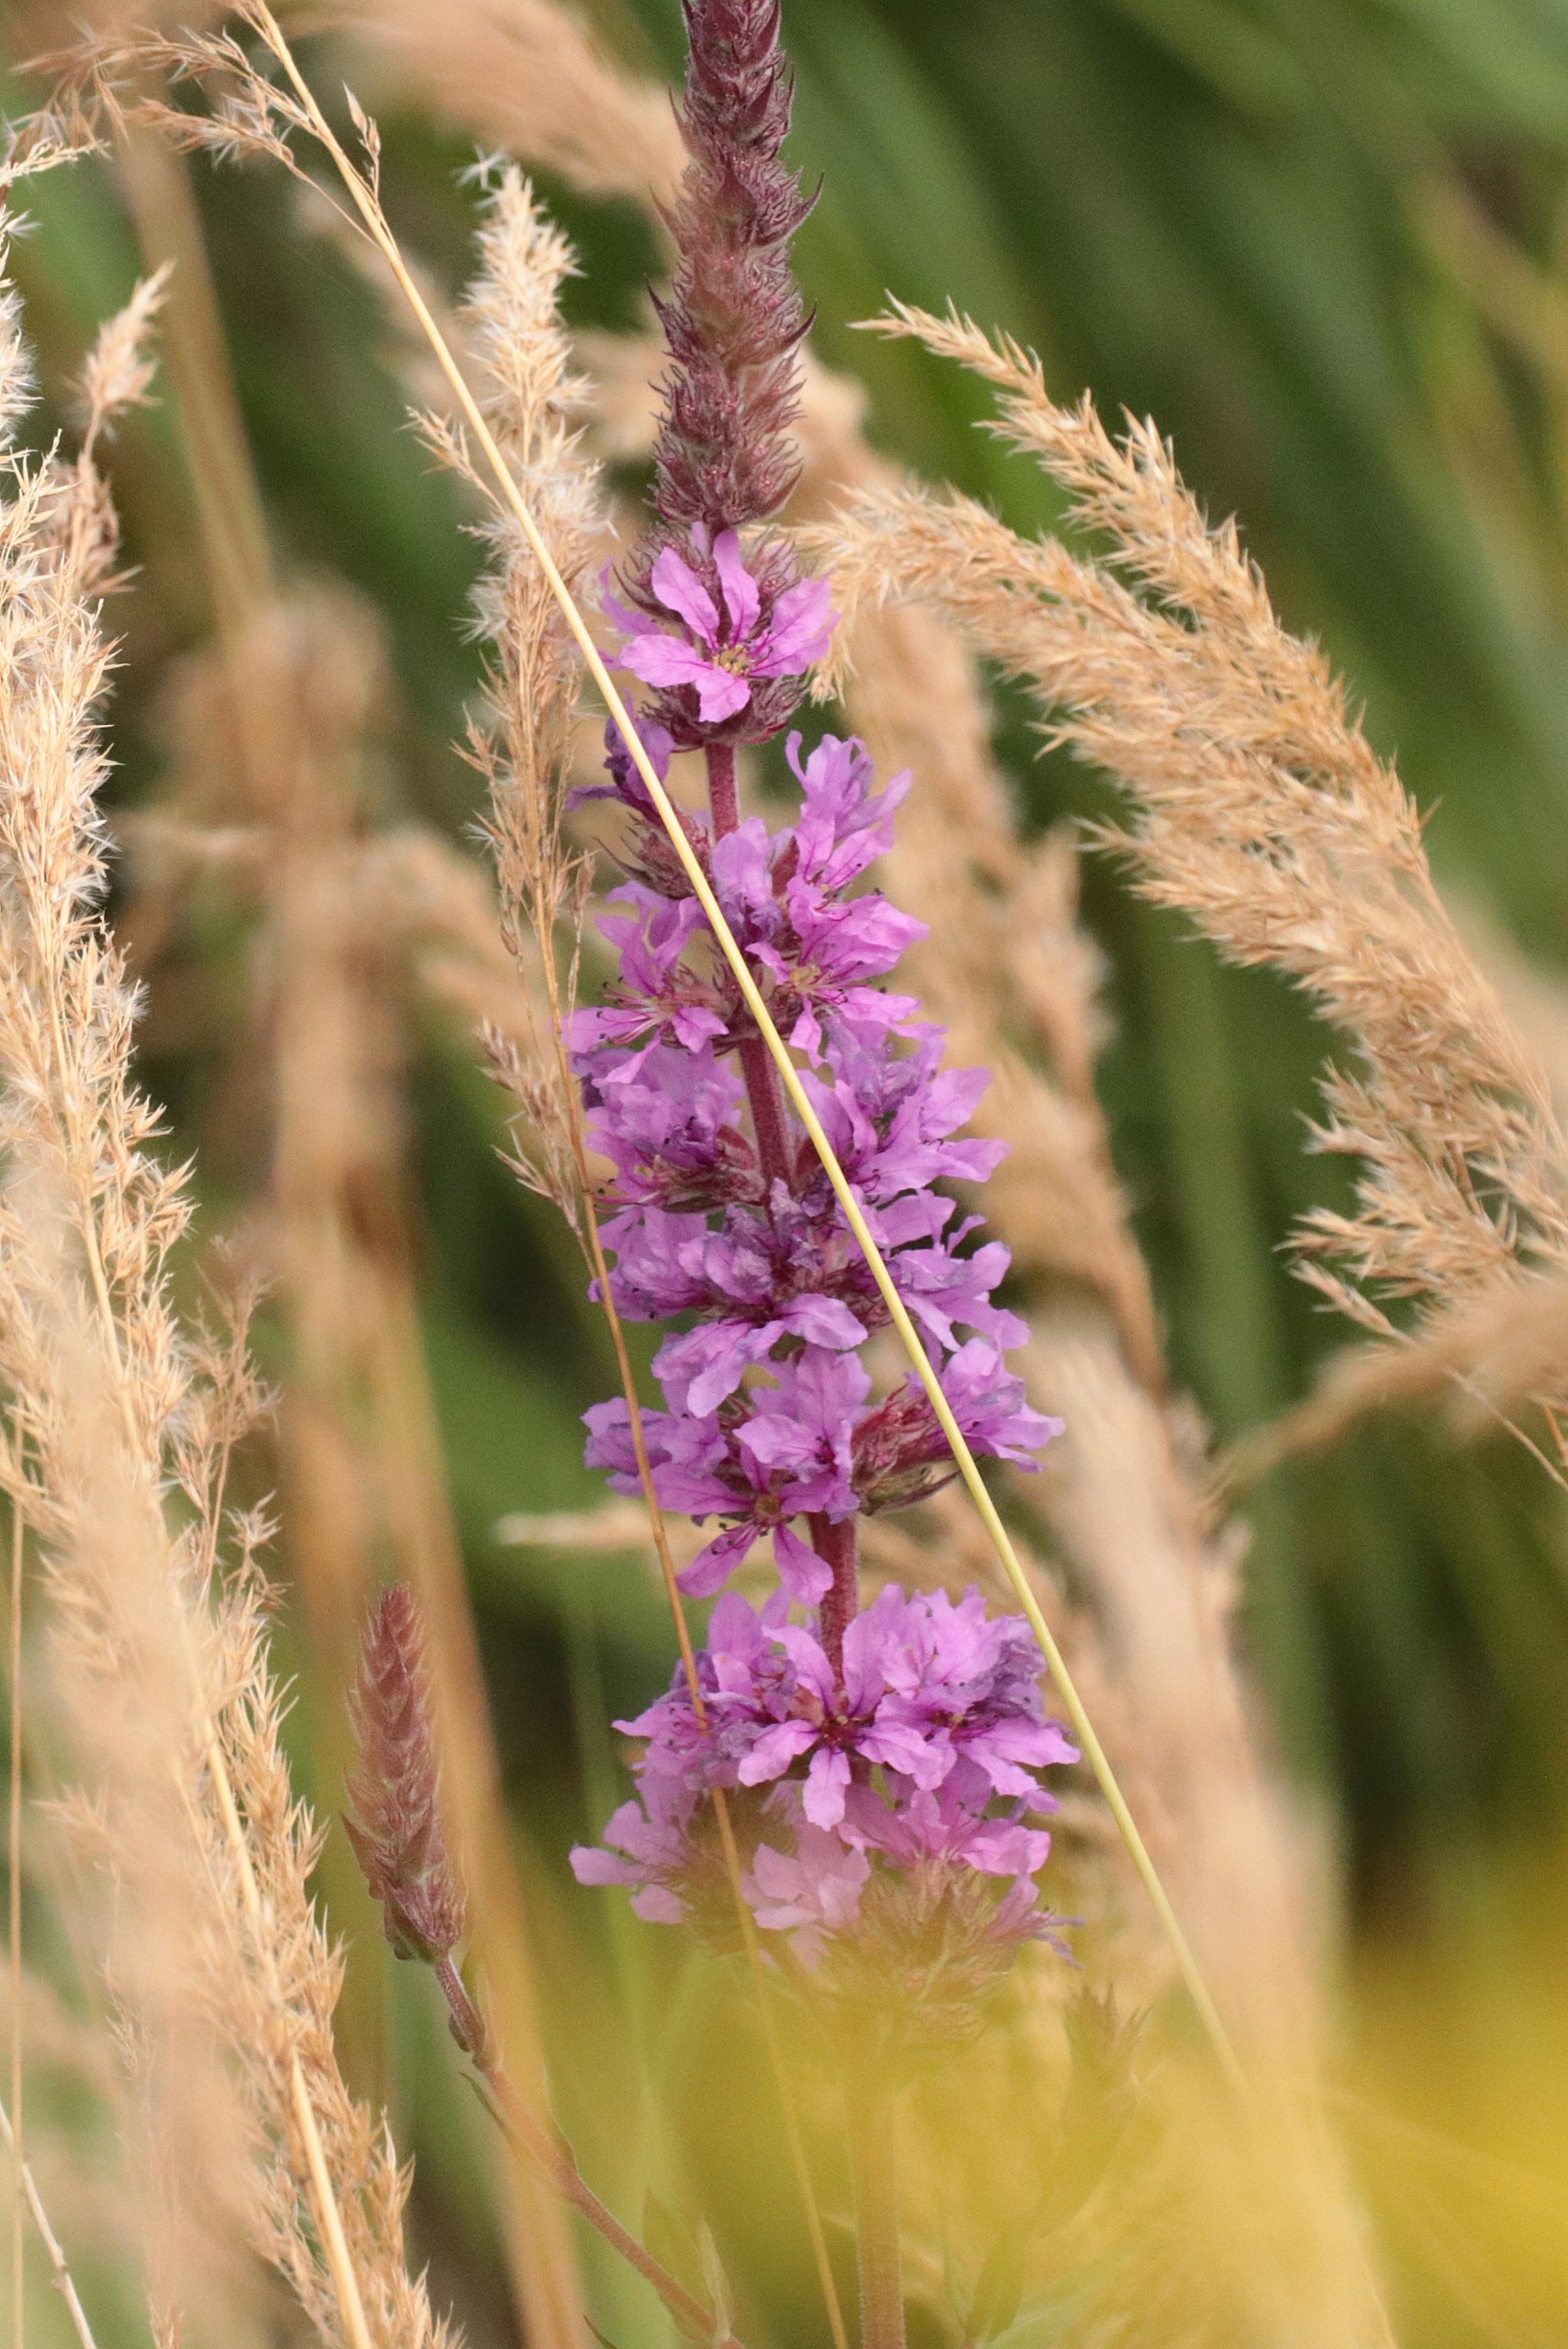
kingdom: Plantae
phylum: Tracheophyta
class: Magnoliopsida
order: Myrtales
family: Lythraceae
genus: Lythrum
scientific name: Lythrum salicaria
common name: Kattehale
